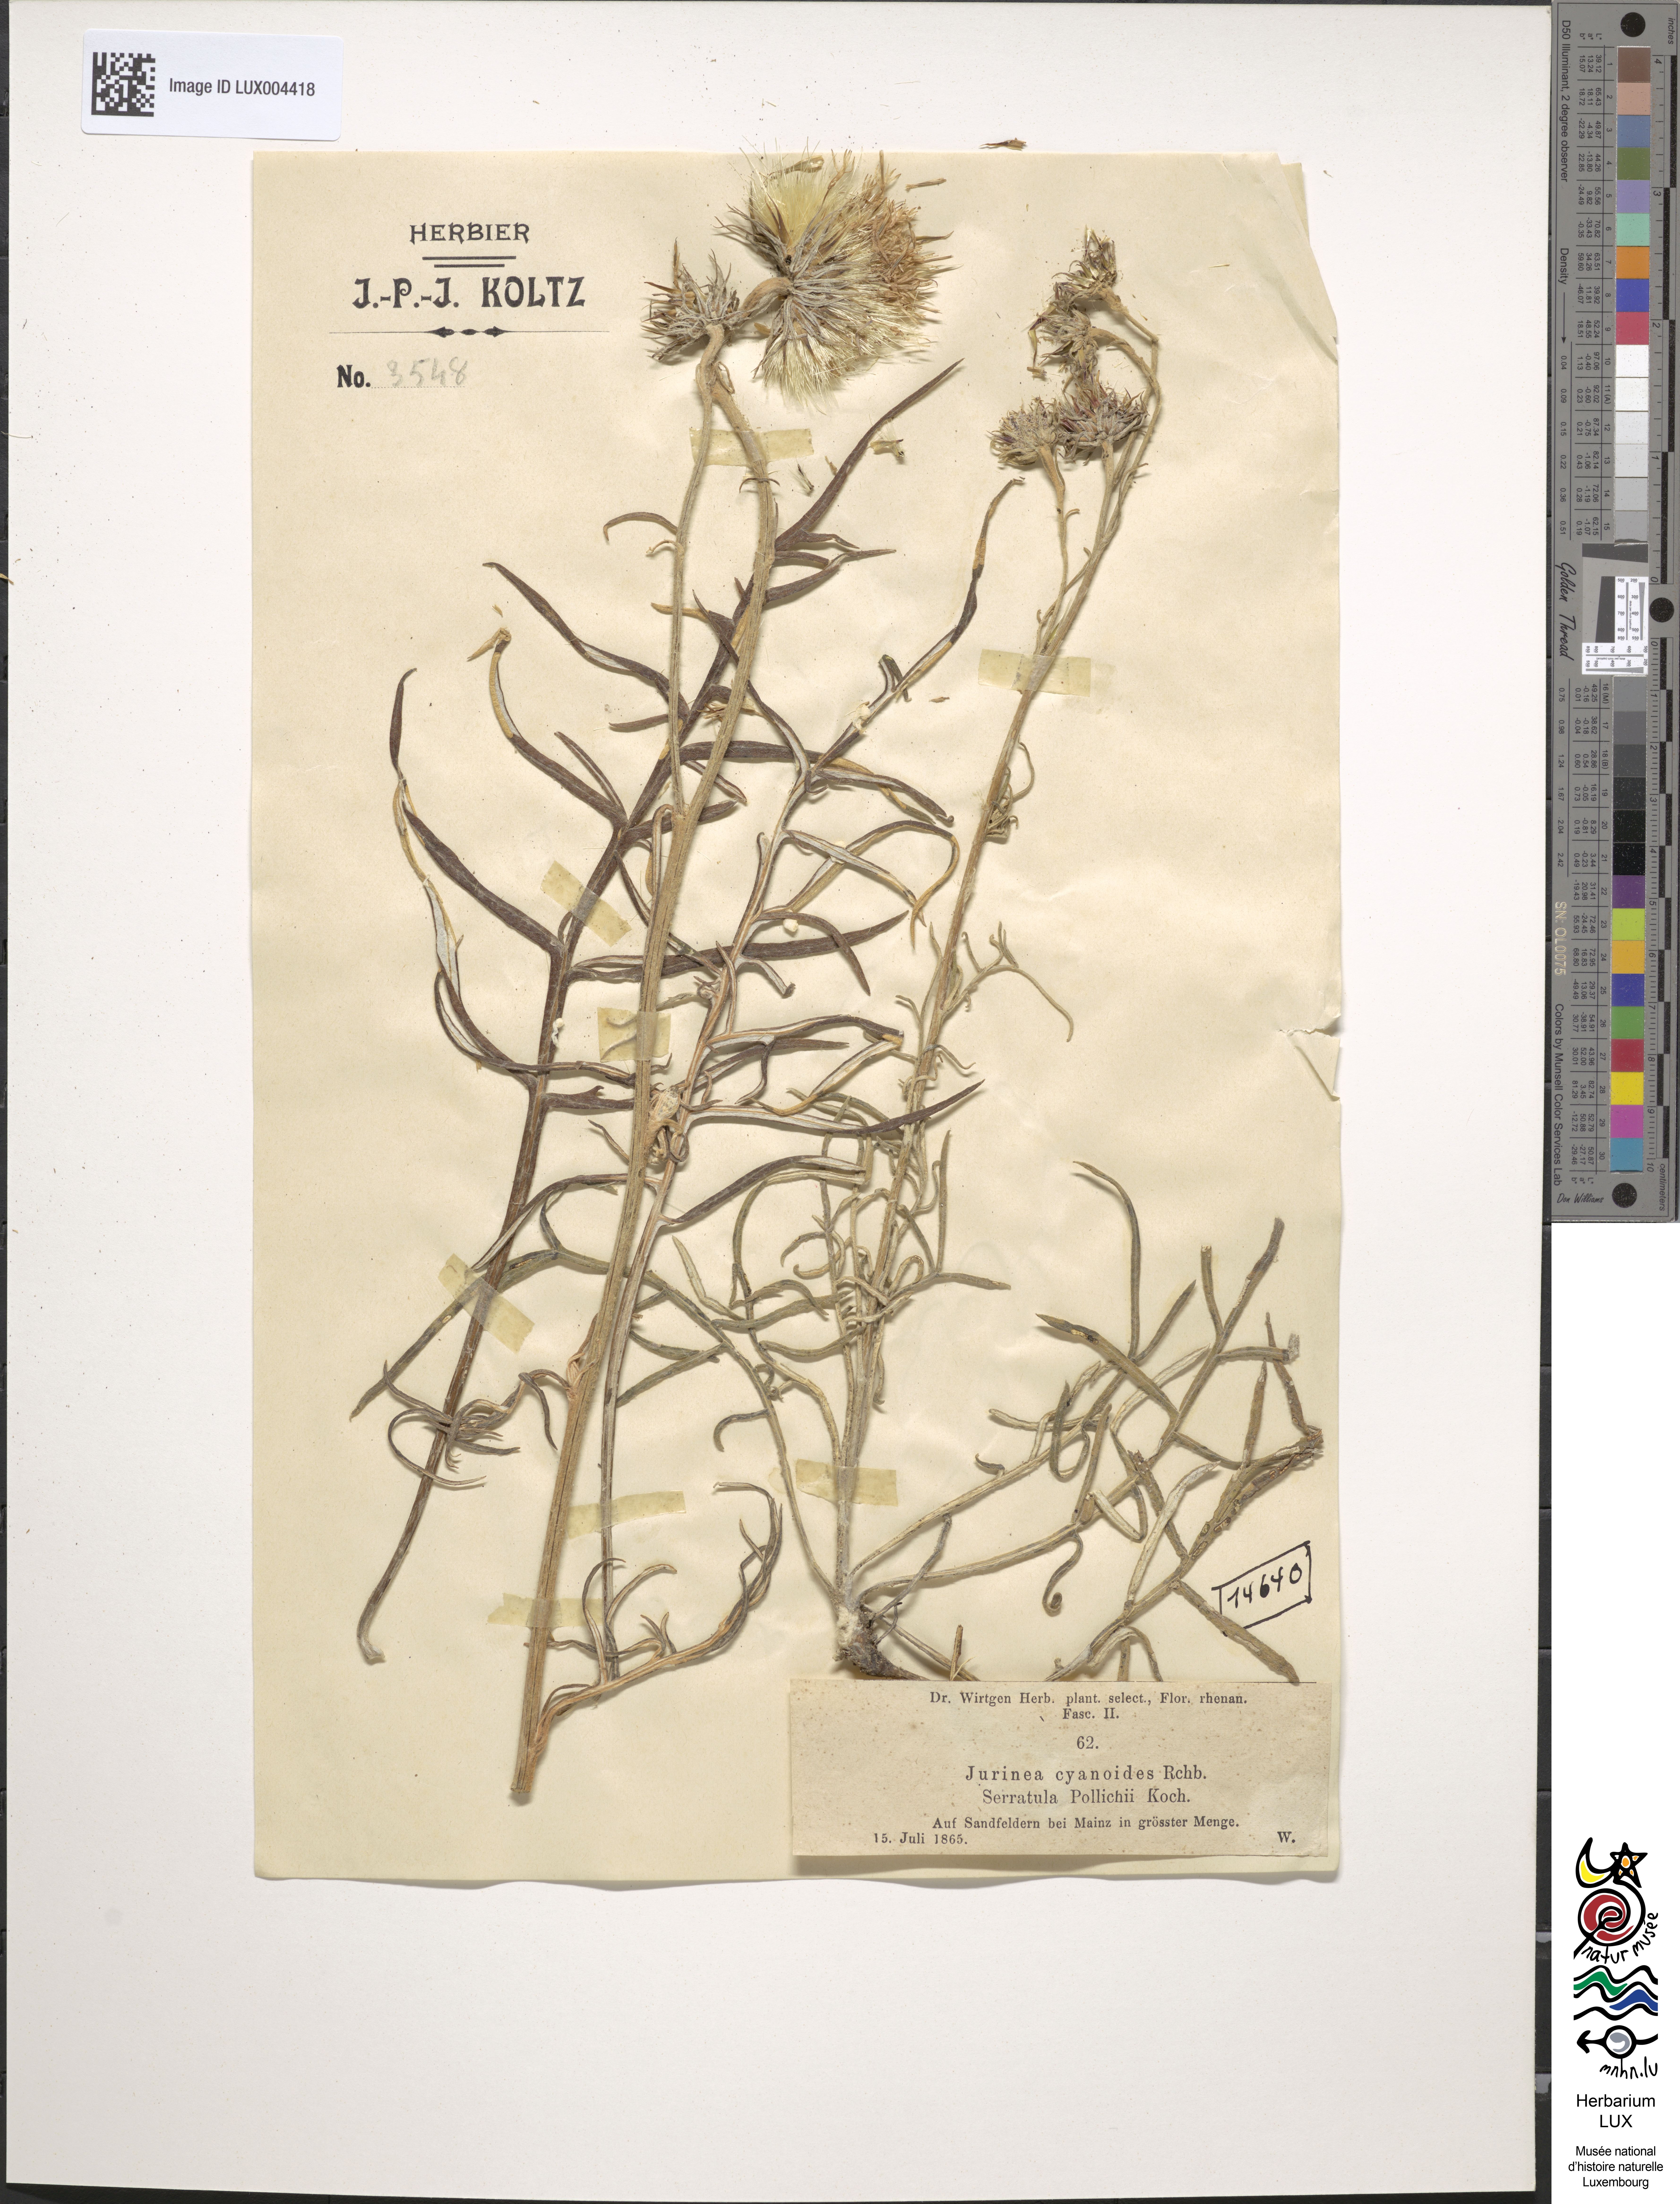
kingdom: Plantae
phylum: Tracheophyta
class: Magnoliopsida
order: Asterales
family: Asteraceae
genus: Jurinea
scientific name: Jurinea cyanoides
